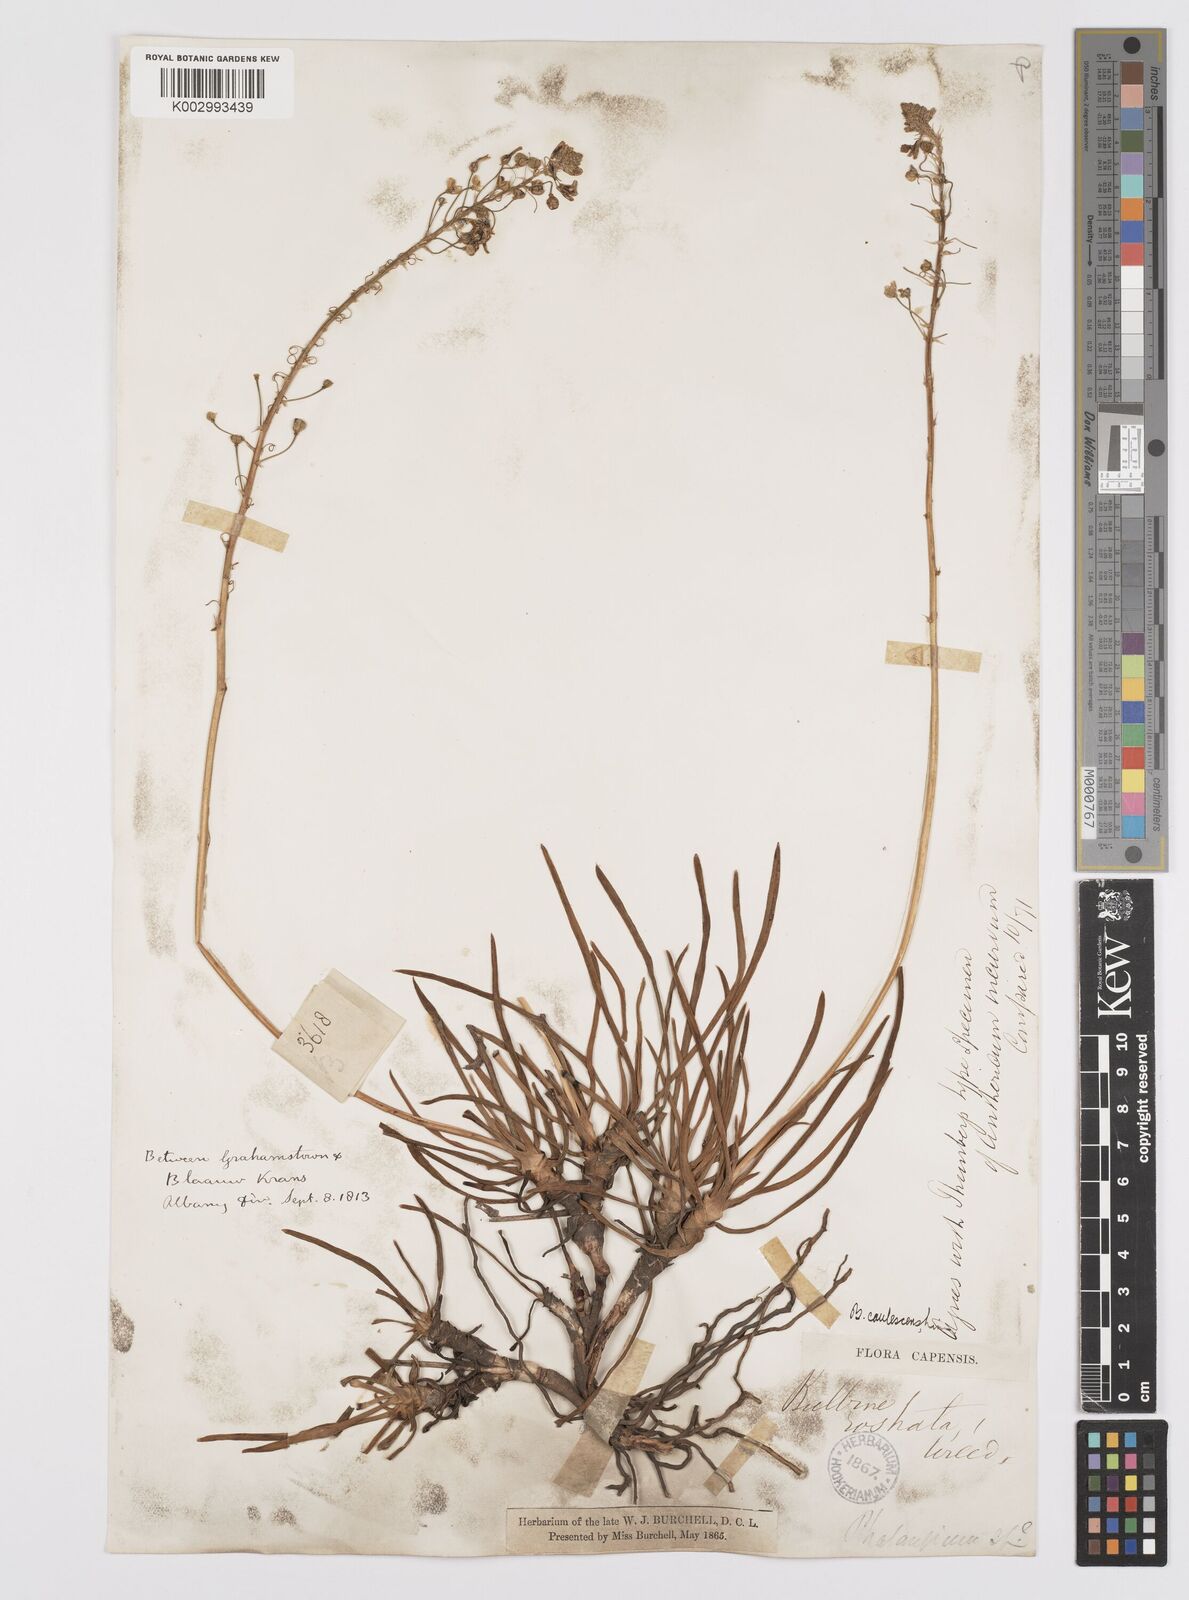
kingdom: Plantae
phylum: Tracheophyta
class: Liliopsida
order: Asparagales
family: Asphodelaceae
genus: Bulbine
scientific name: Bulbine frutescens
